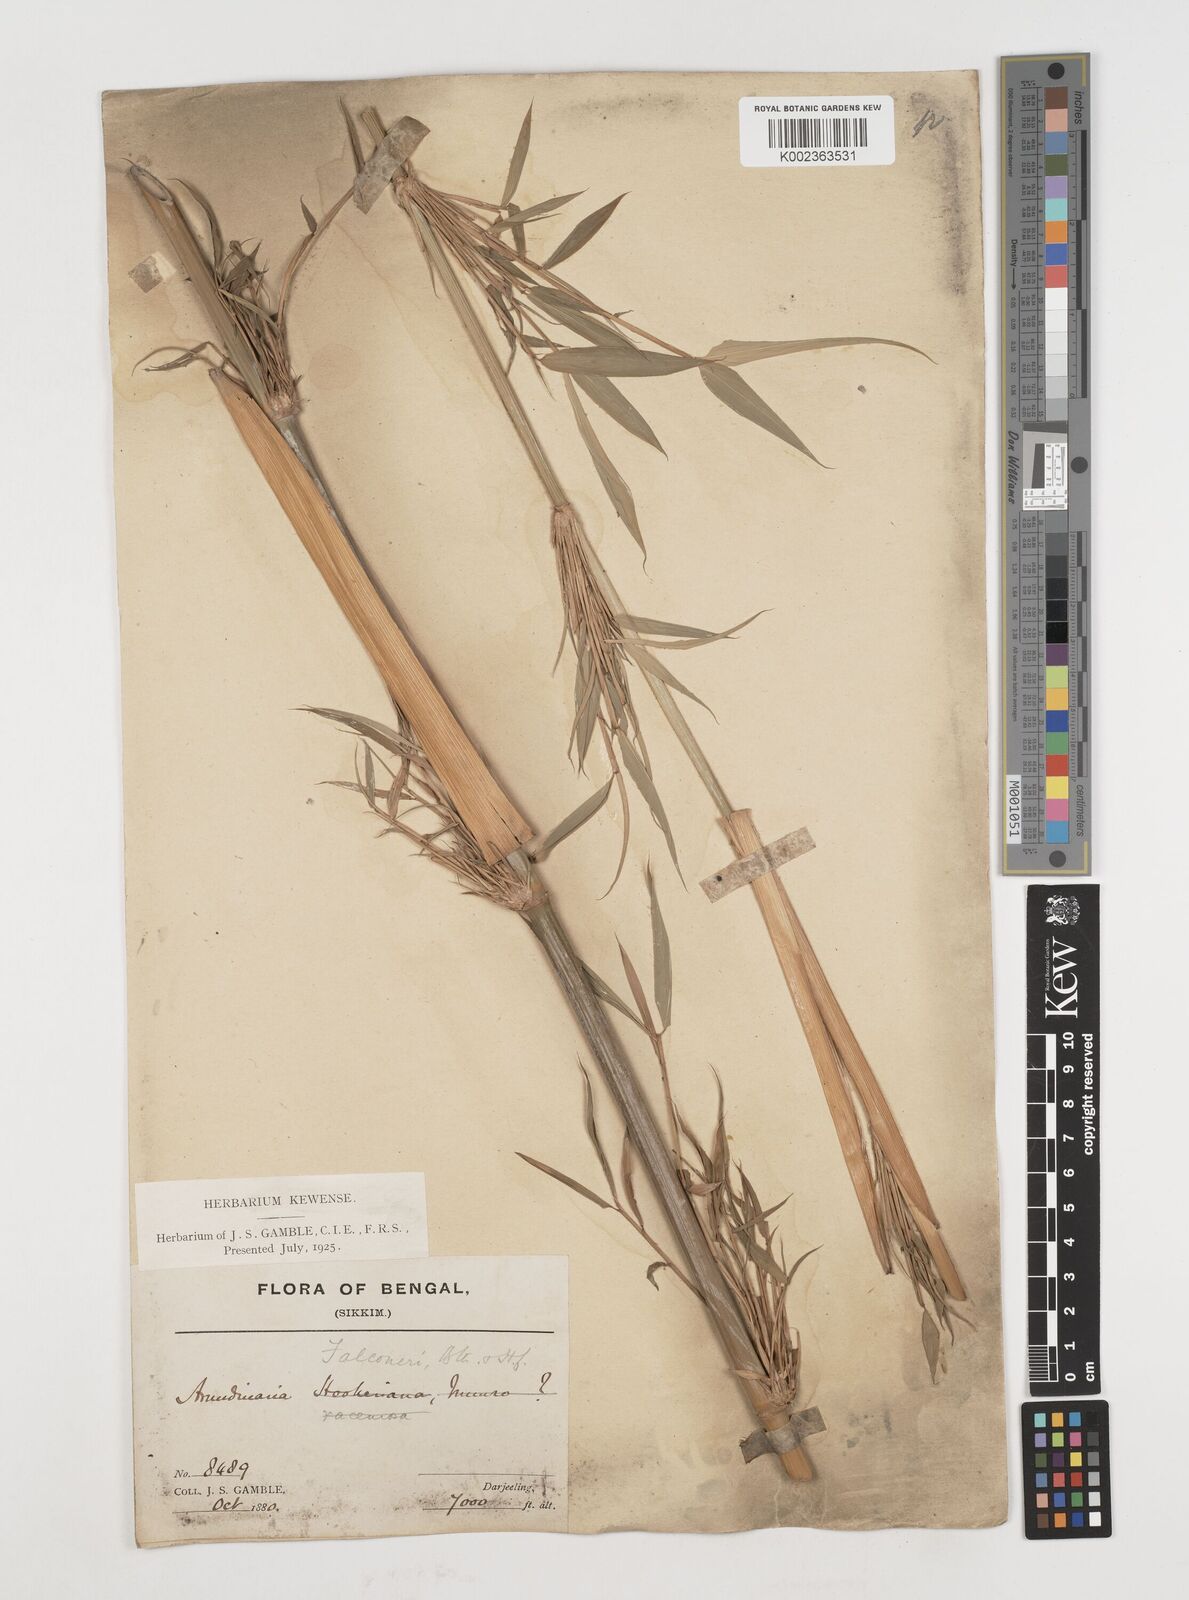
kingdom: Plantae
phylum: Tracheophyta
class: Liliopsida
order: Poales
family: Poaceae
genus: Himalayacalamus
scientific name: Himalayacalamus falconeri
